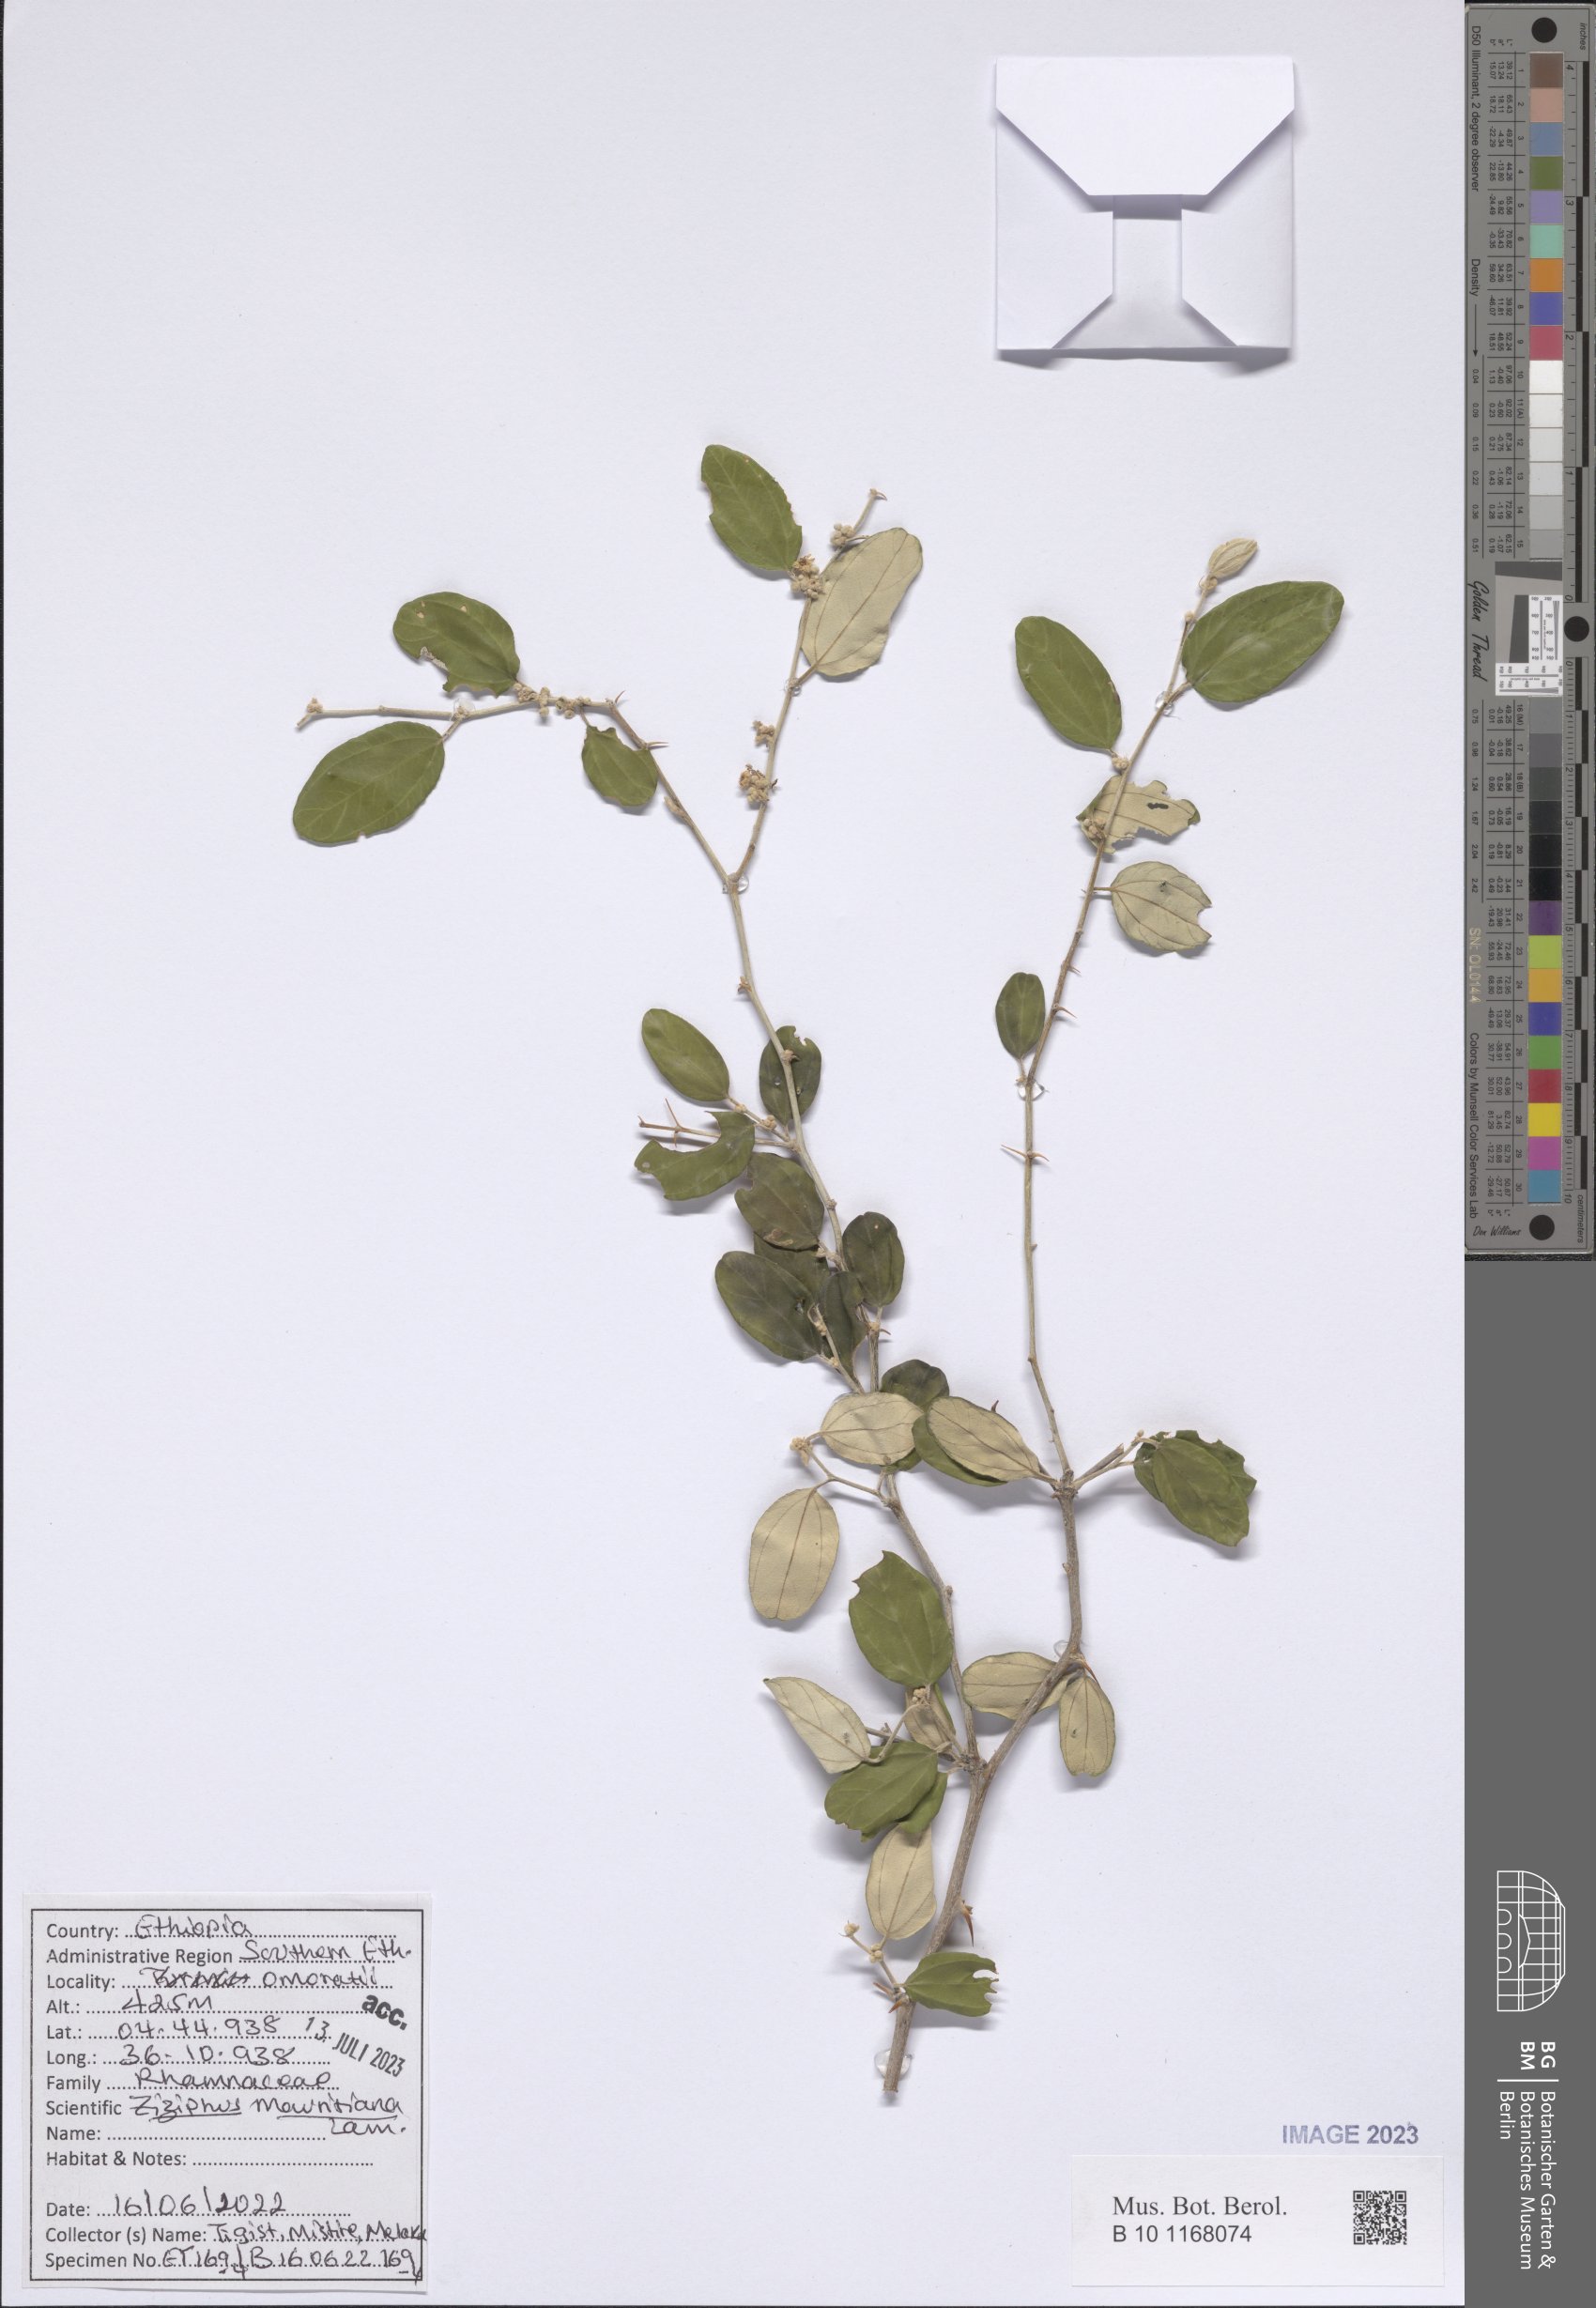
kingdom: Plantae
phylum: Tracheophyta
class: Magnoliopsida
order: Rosales
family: Rhamnaceae
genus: Ziziphus
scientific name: Ziziphus mauritiana
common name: Indian jujube
